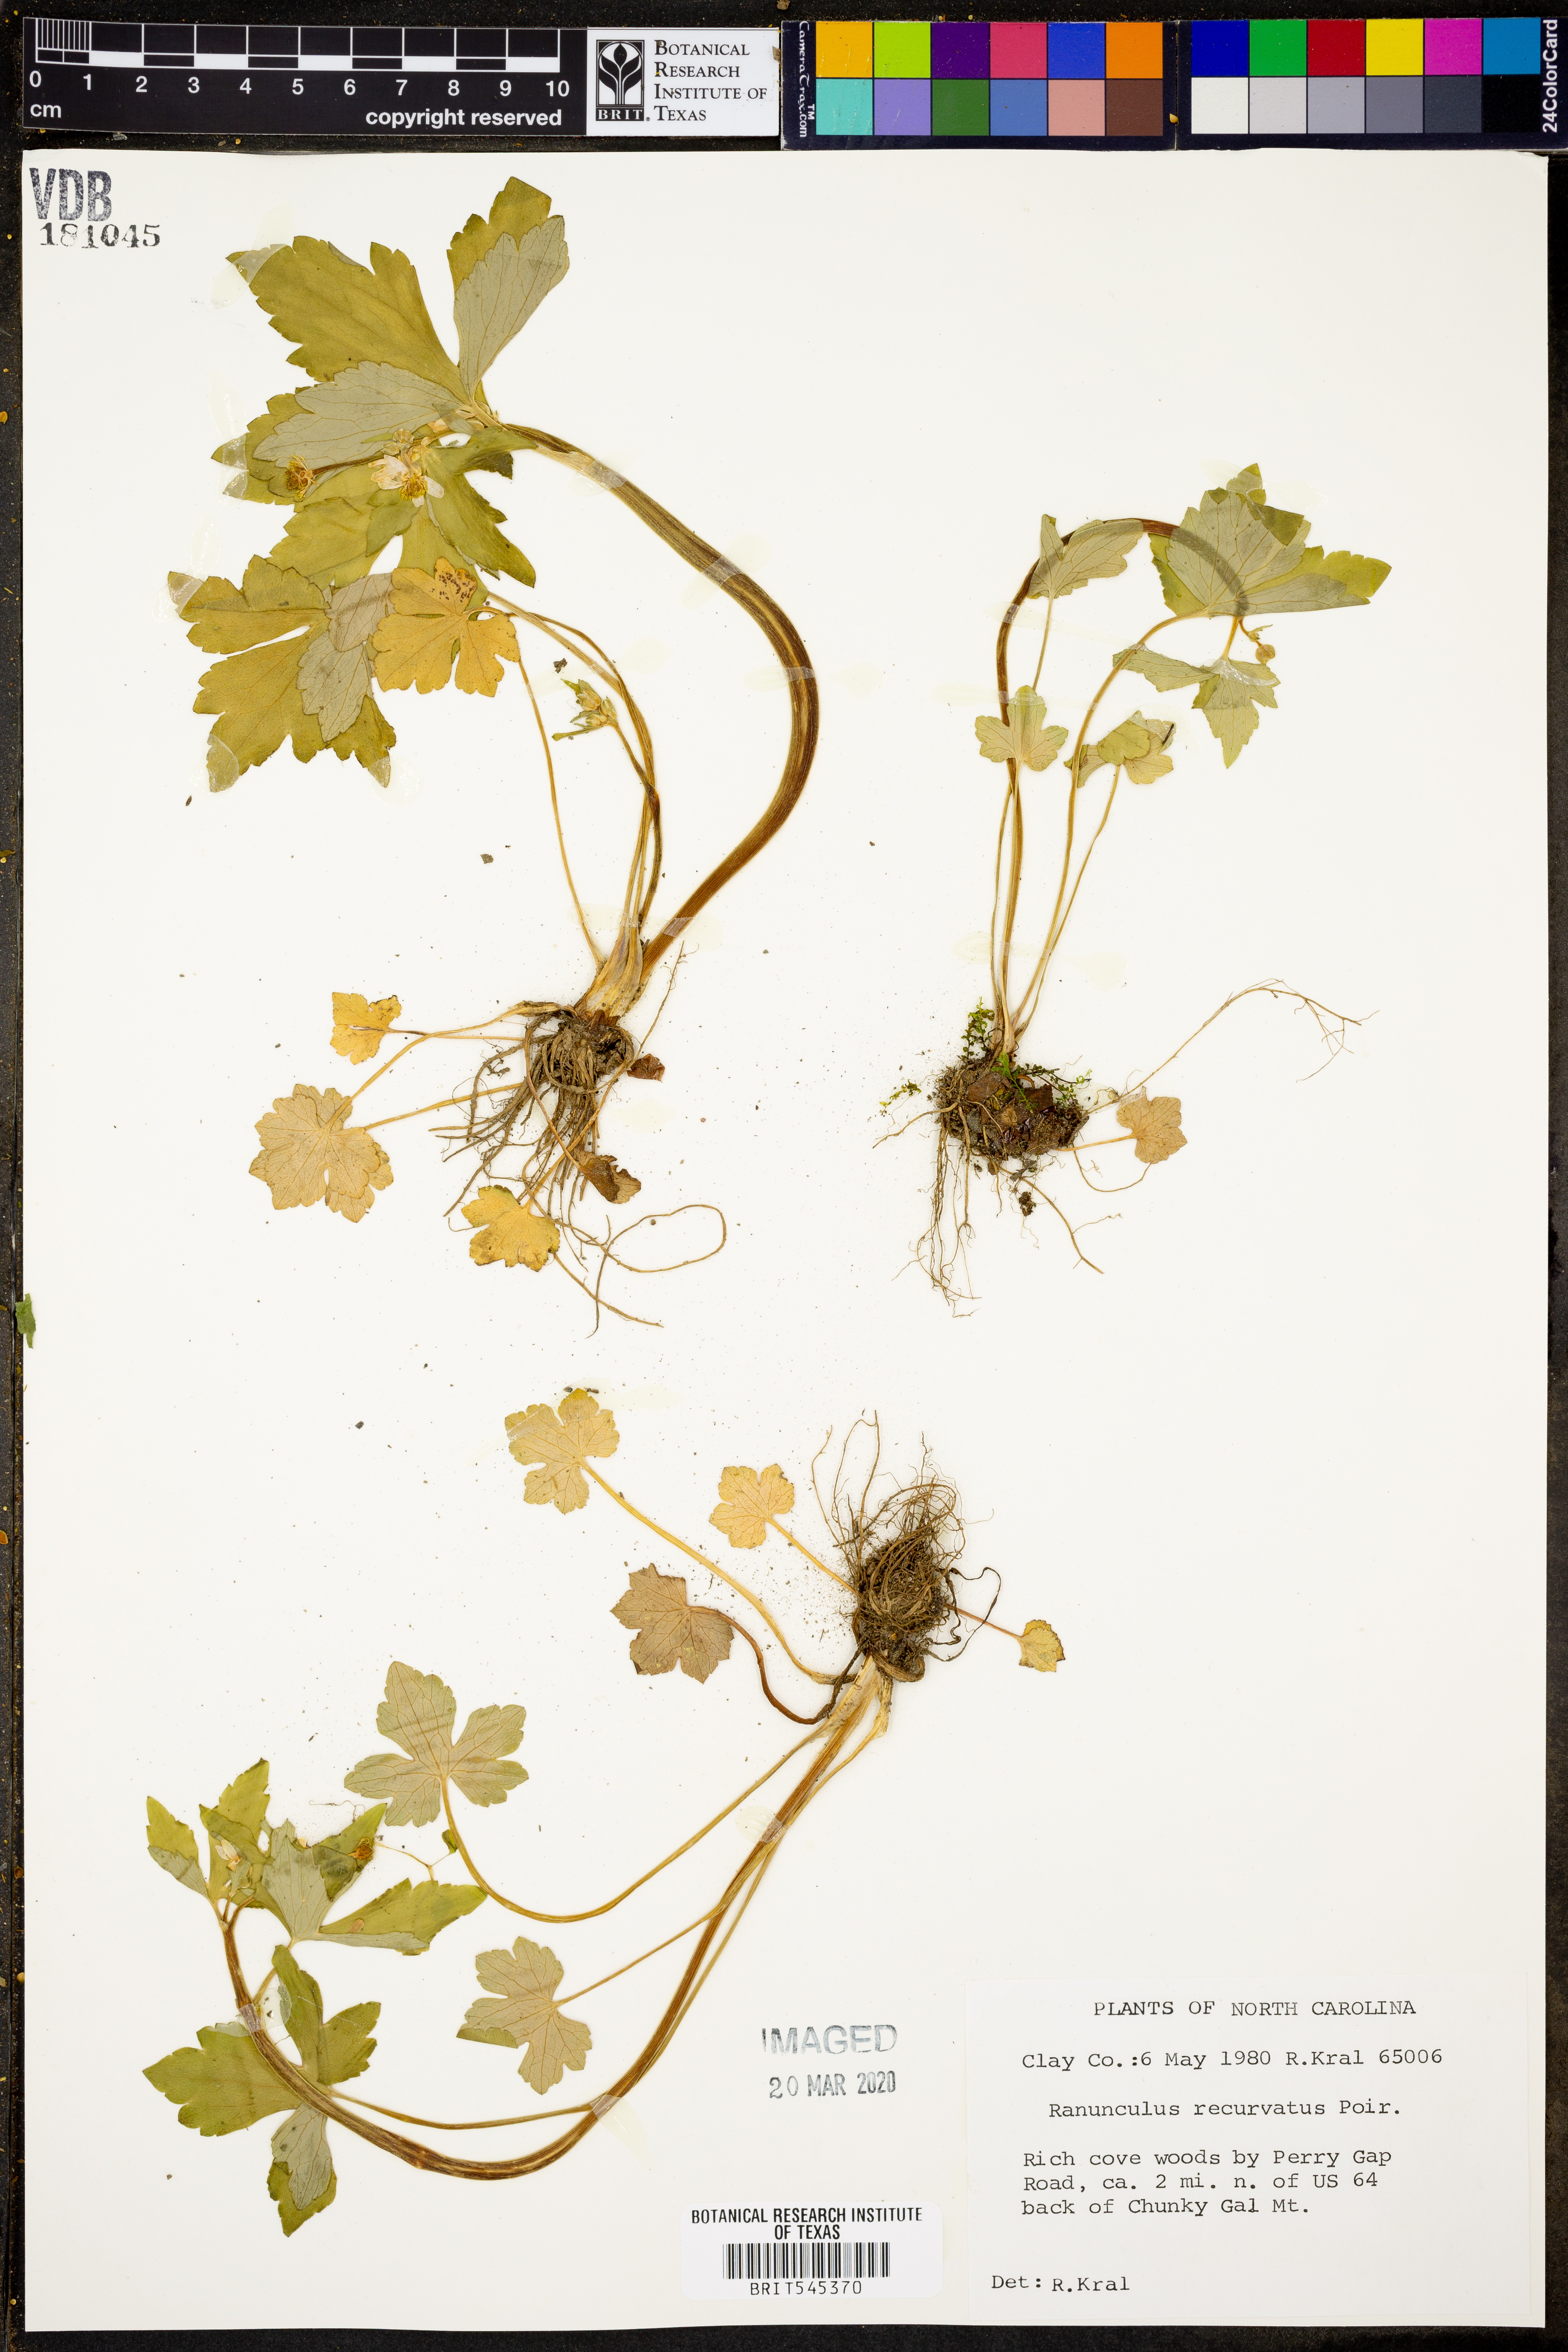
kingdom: Plantae
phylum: Tracheophyta
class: Magnoliopsida
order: Ranunculales
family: Ranunculaceae
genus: Ranunculus
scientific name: Ranunculus recurvatus
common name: Blisterwort
